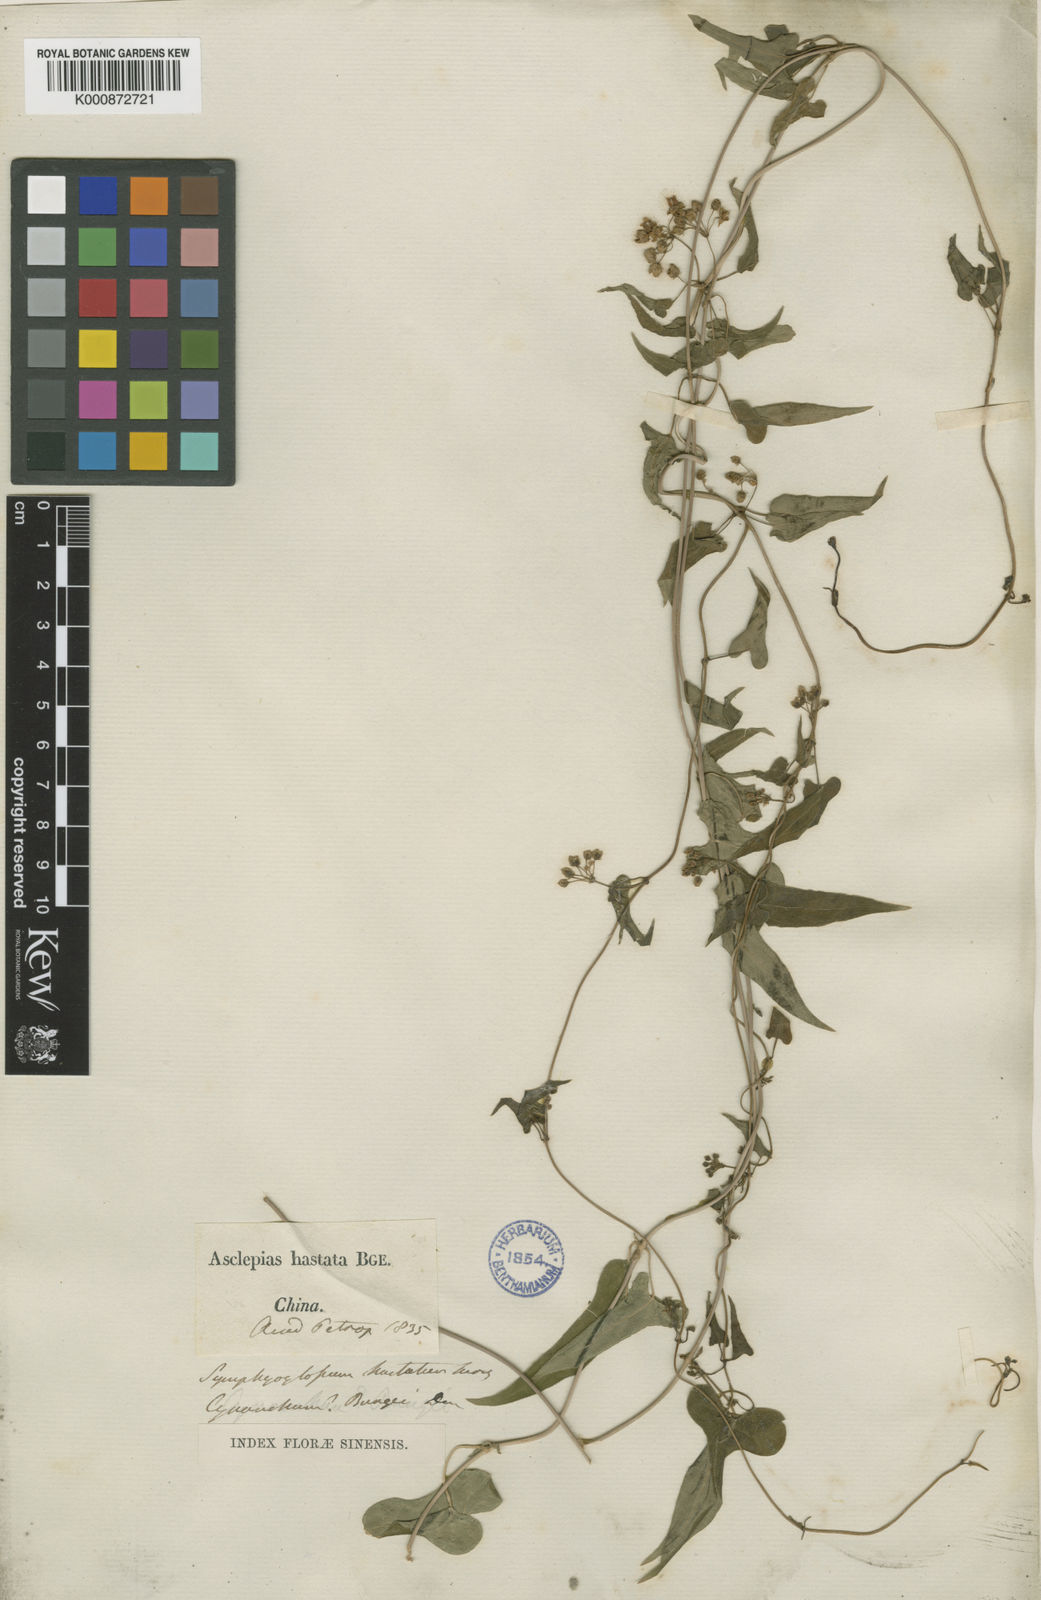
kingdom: Plantae
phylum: Tracheophyta
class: Magnoliopsida
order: Gentianales
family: Apocynaceae
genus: Cynanchum
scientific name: Cynanchum bungei
